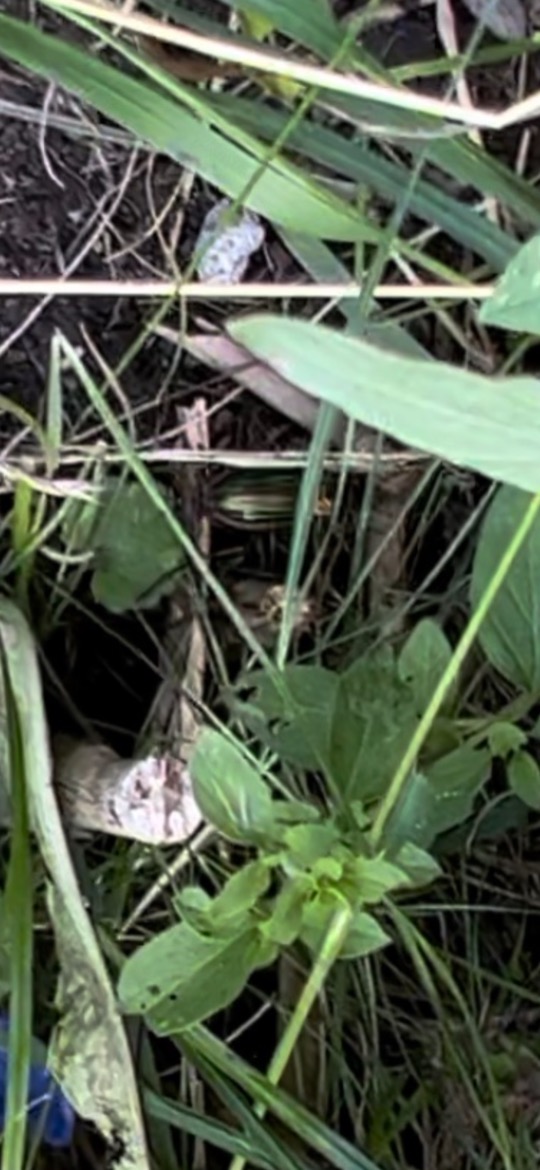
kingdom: Animalia
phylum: Arthropoda
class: Insecta
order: Coleoptera
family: Carabidae
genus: Carabus
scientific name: Carabus auratus
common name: Stor guldløber
